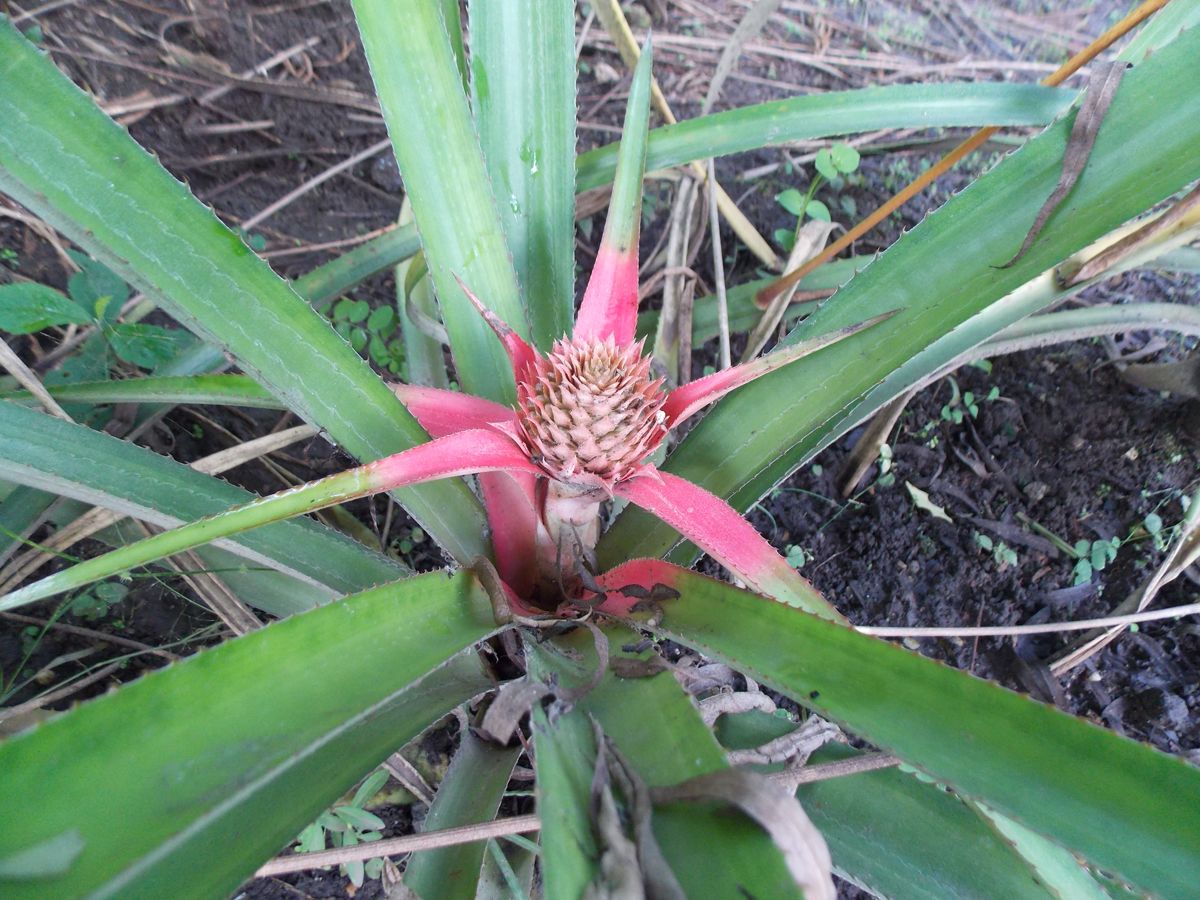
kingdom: Plantae
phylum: Tracheophyta
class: Liliopsida
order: Poales
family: Bromeliaceae
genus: Ananas
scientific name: Ananas comosus
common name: Pineapple
